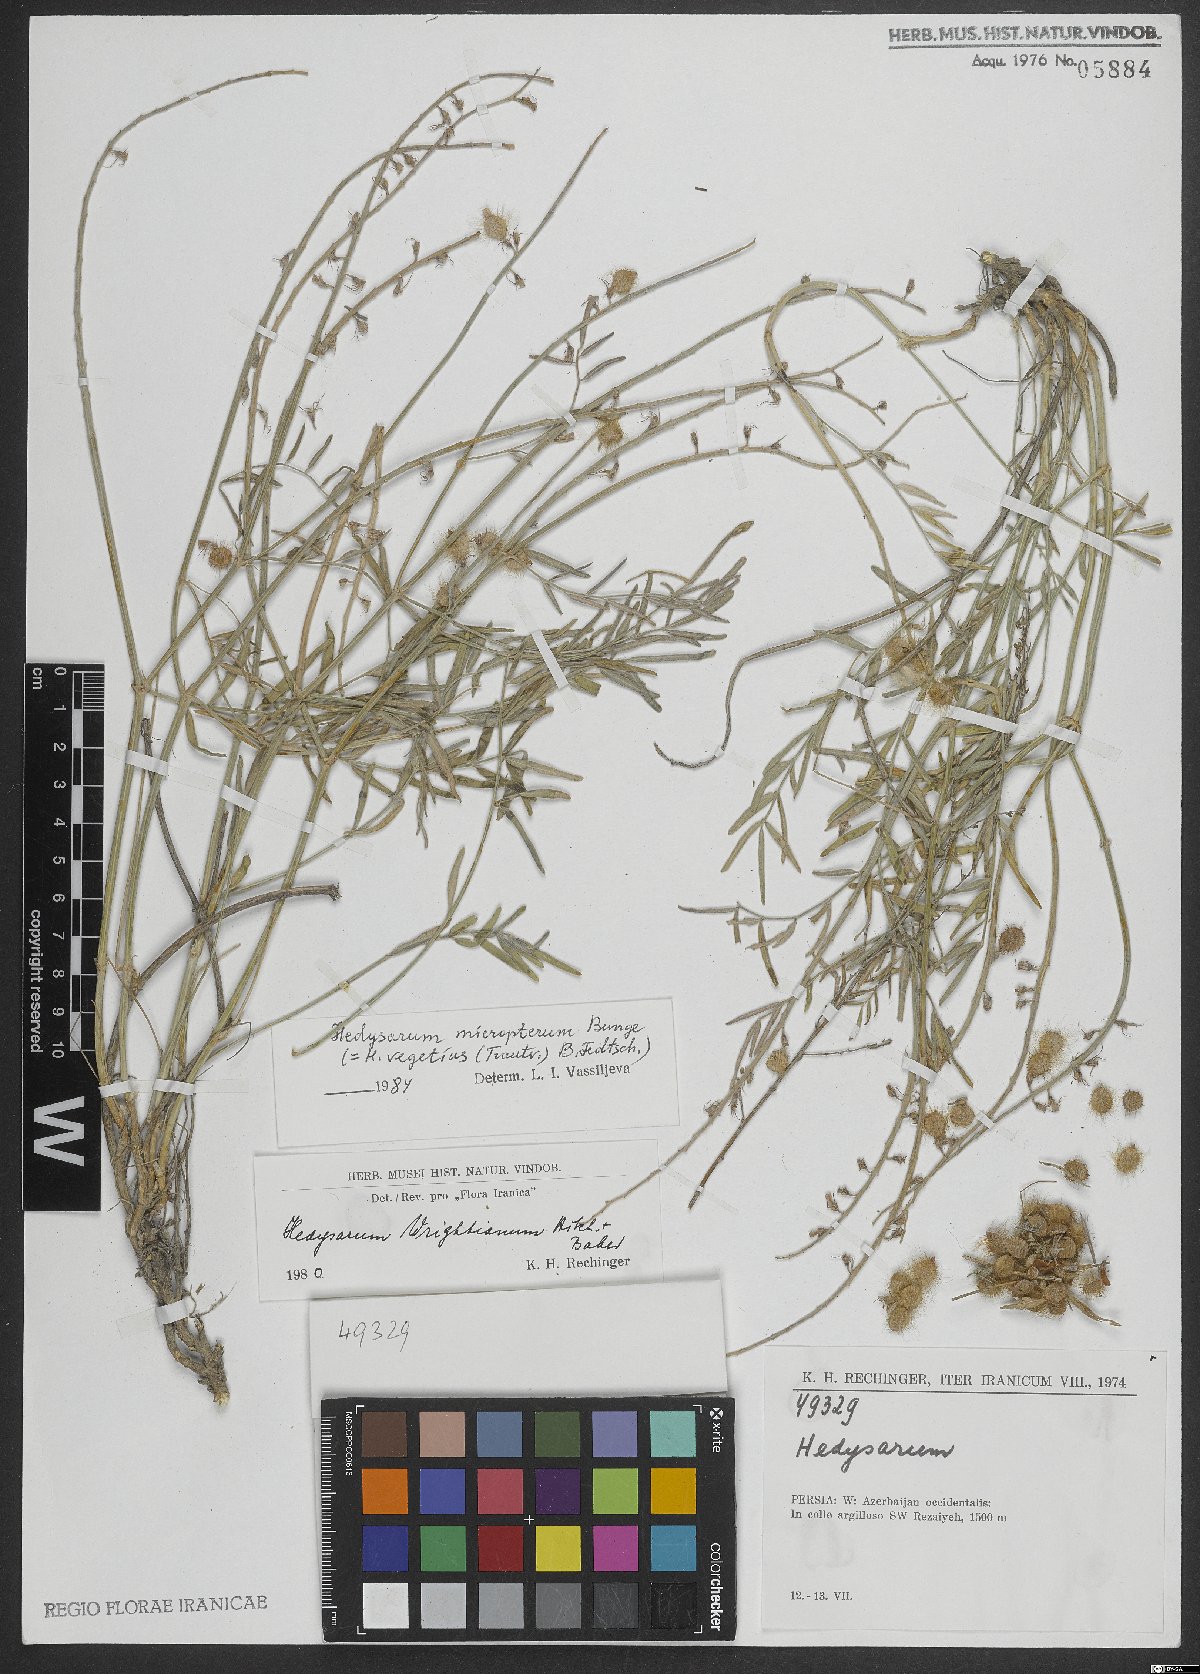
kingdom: Plantae
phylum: Tracheophyta
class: Magnoliopsida
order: Fabales
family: Fabaceae
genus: Hedysarum
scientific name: Hedysarum micropterum
